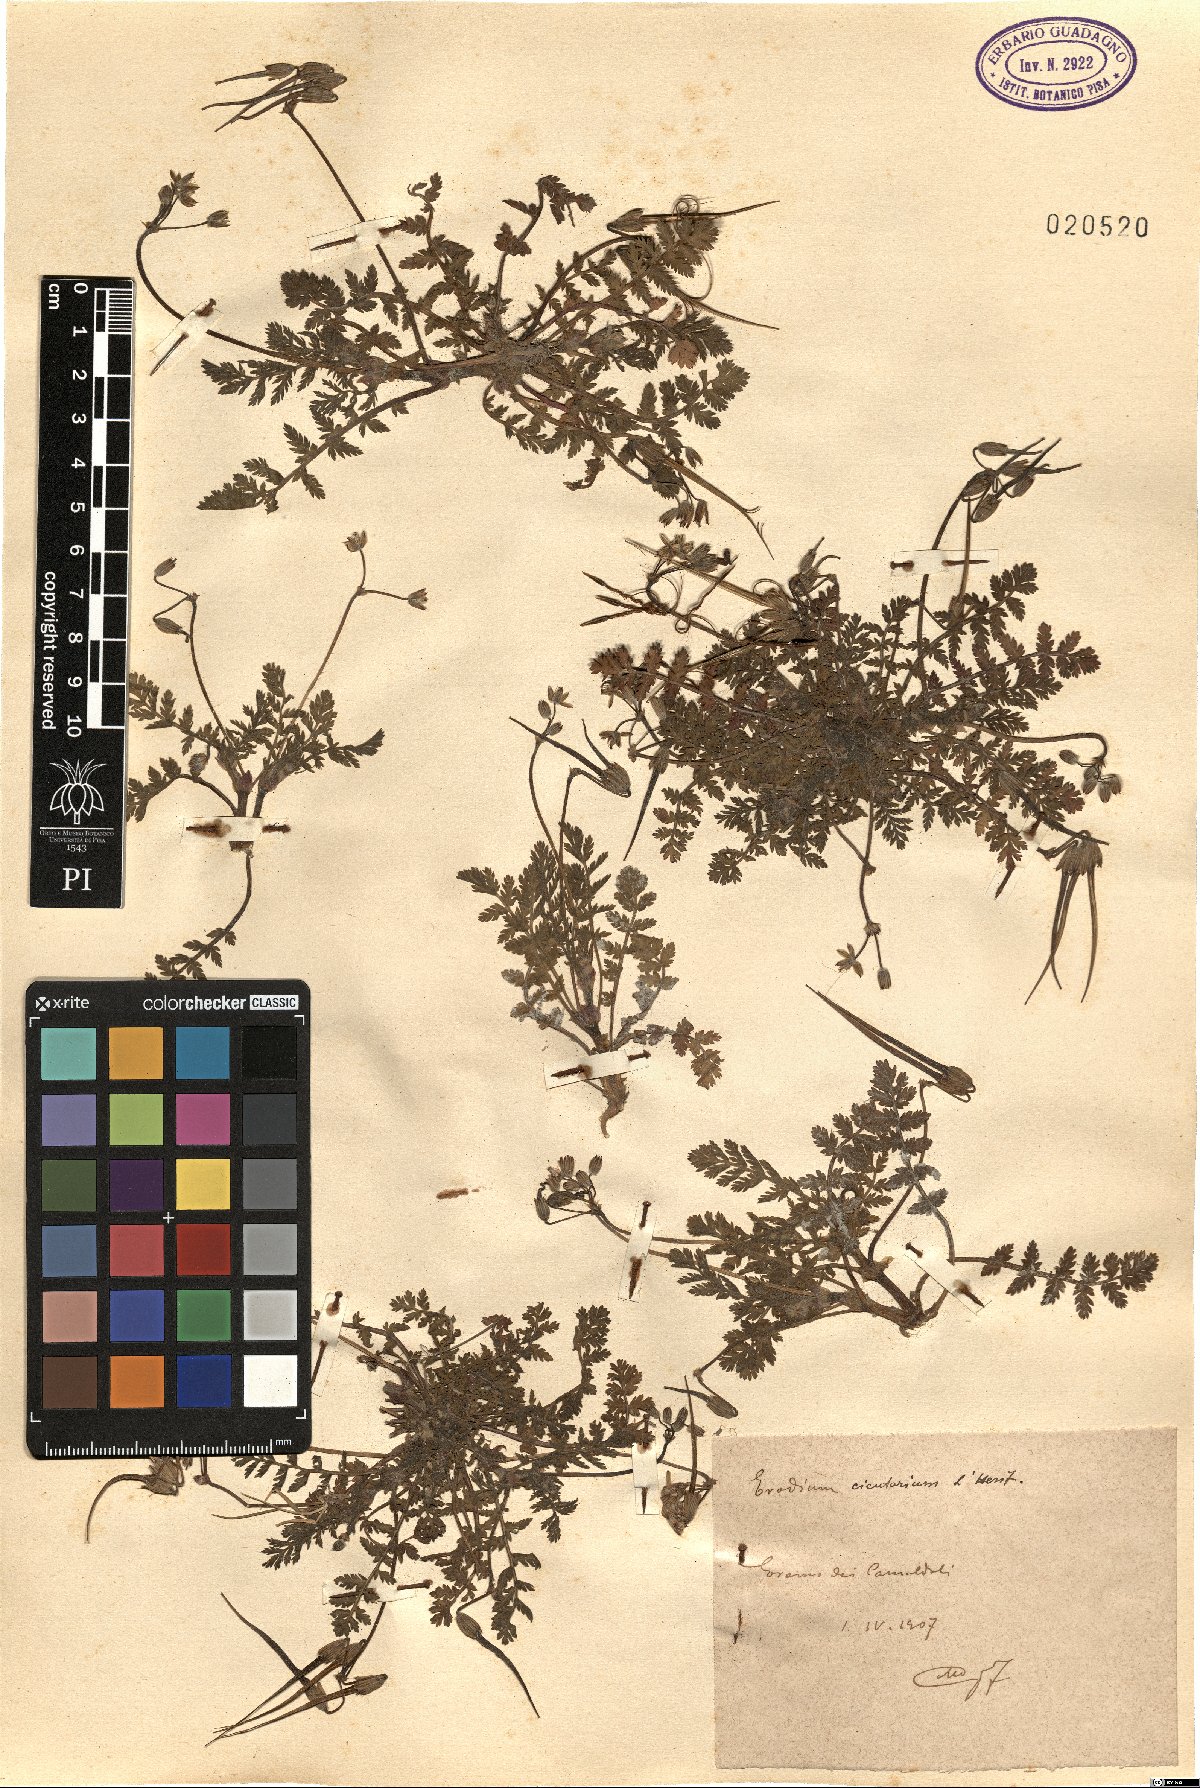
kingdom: Plantae
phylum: Tracheophyta
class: Magnoliopsida
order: Geraniales
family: Geraniaceae
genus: Erodium
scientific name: Erodium cicutarium
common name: Common stork's-bill
